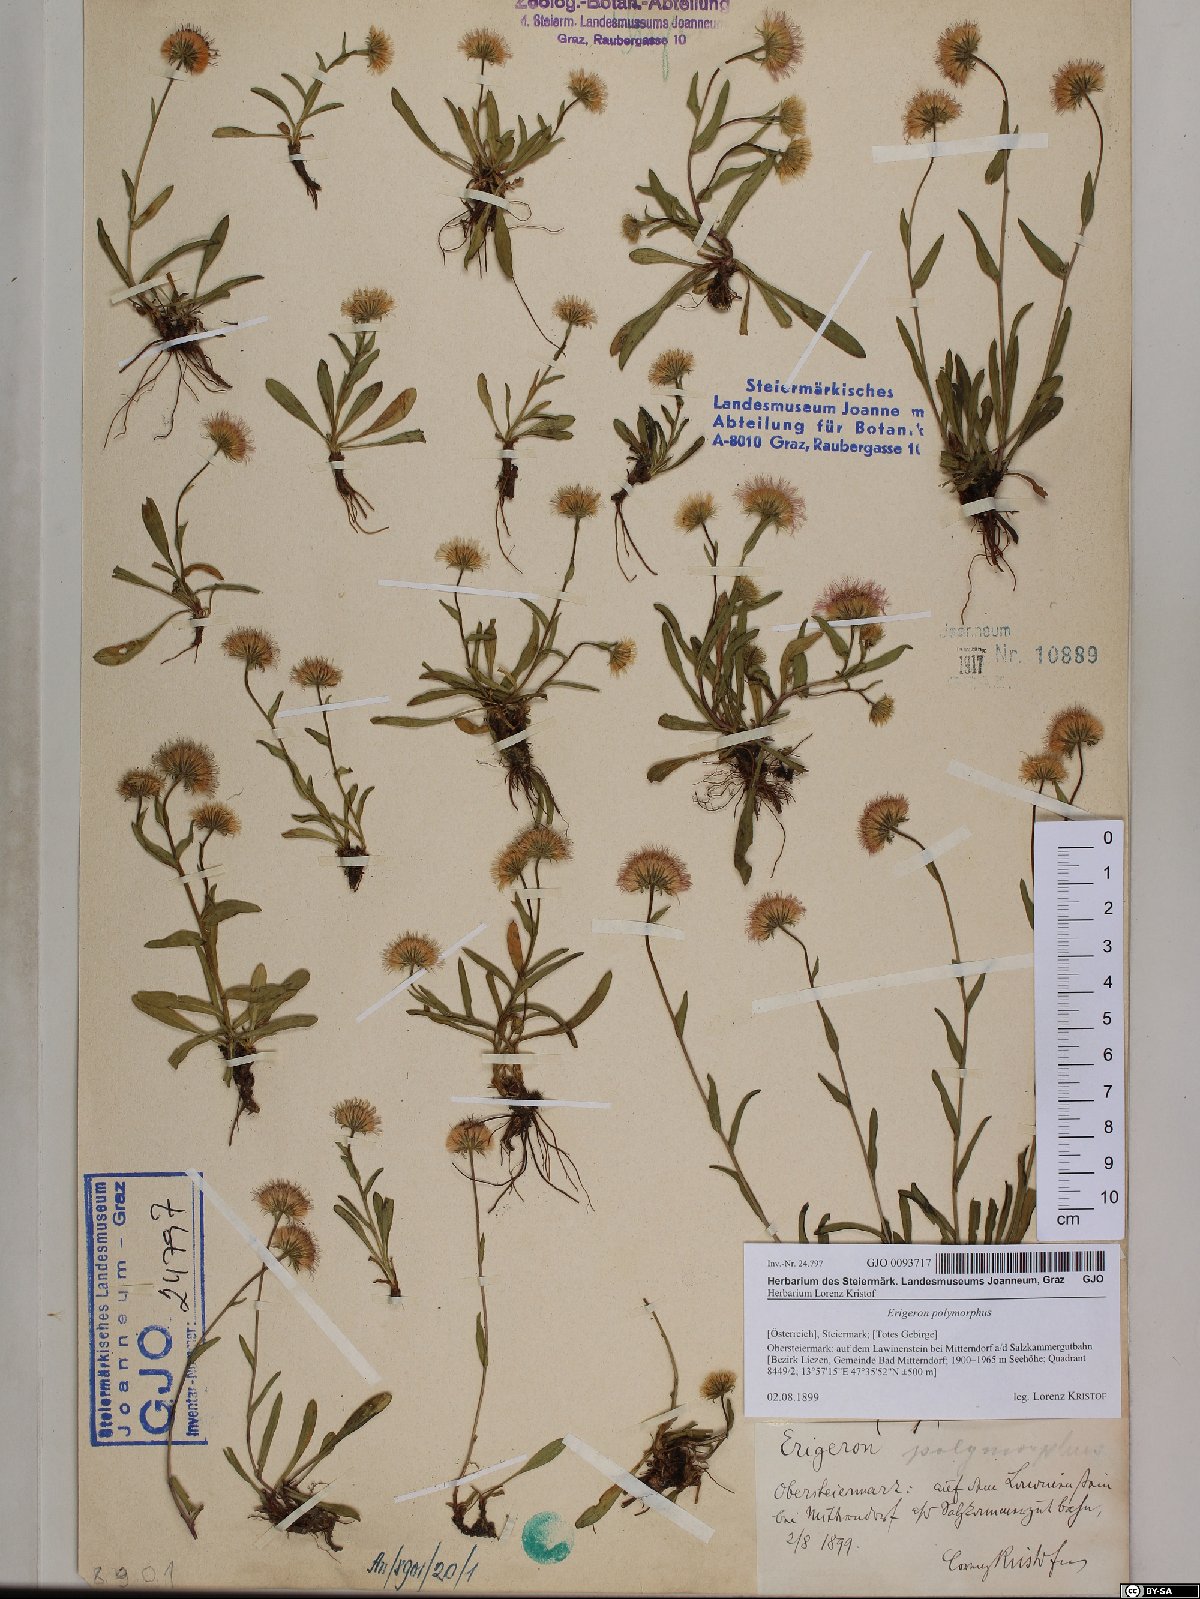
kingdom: Plantae
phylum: Tracheophyta
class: Magnoliopsida
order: Asterales
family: Asteraceae
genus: Erigeron
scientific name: Erigeron alpinus
